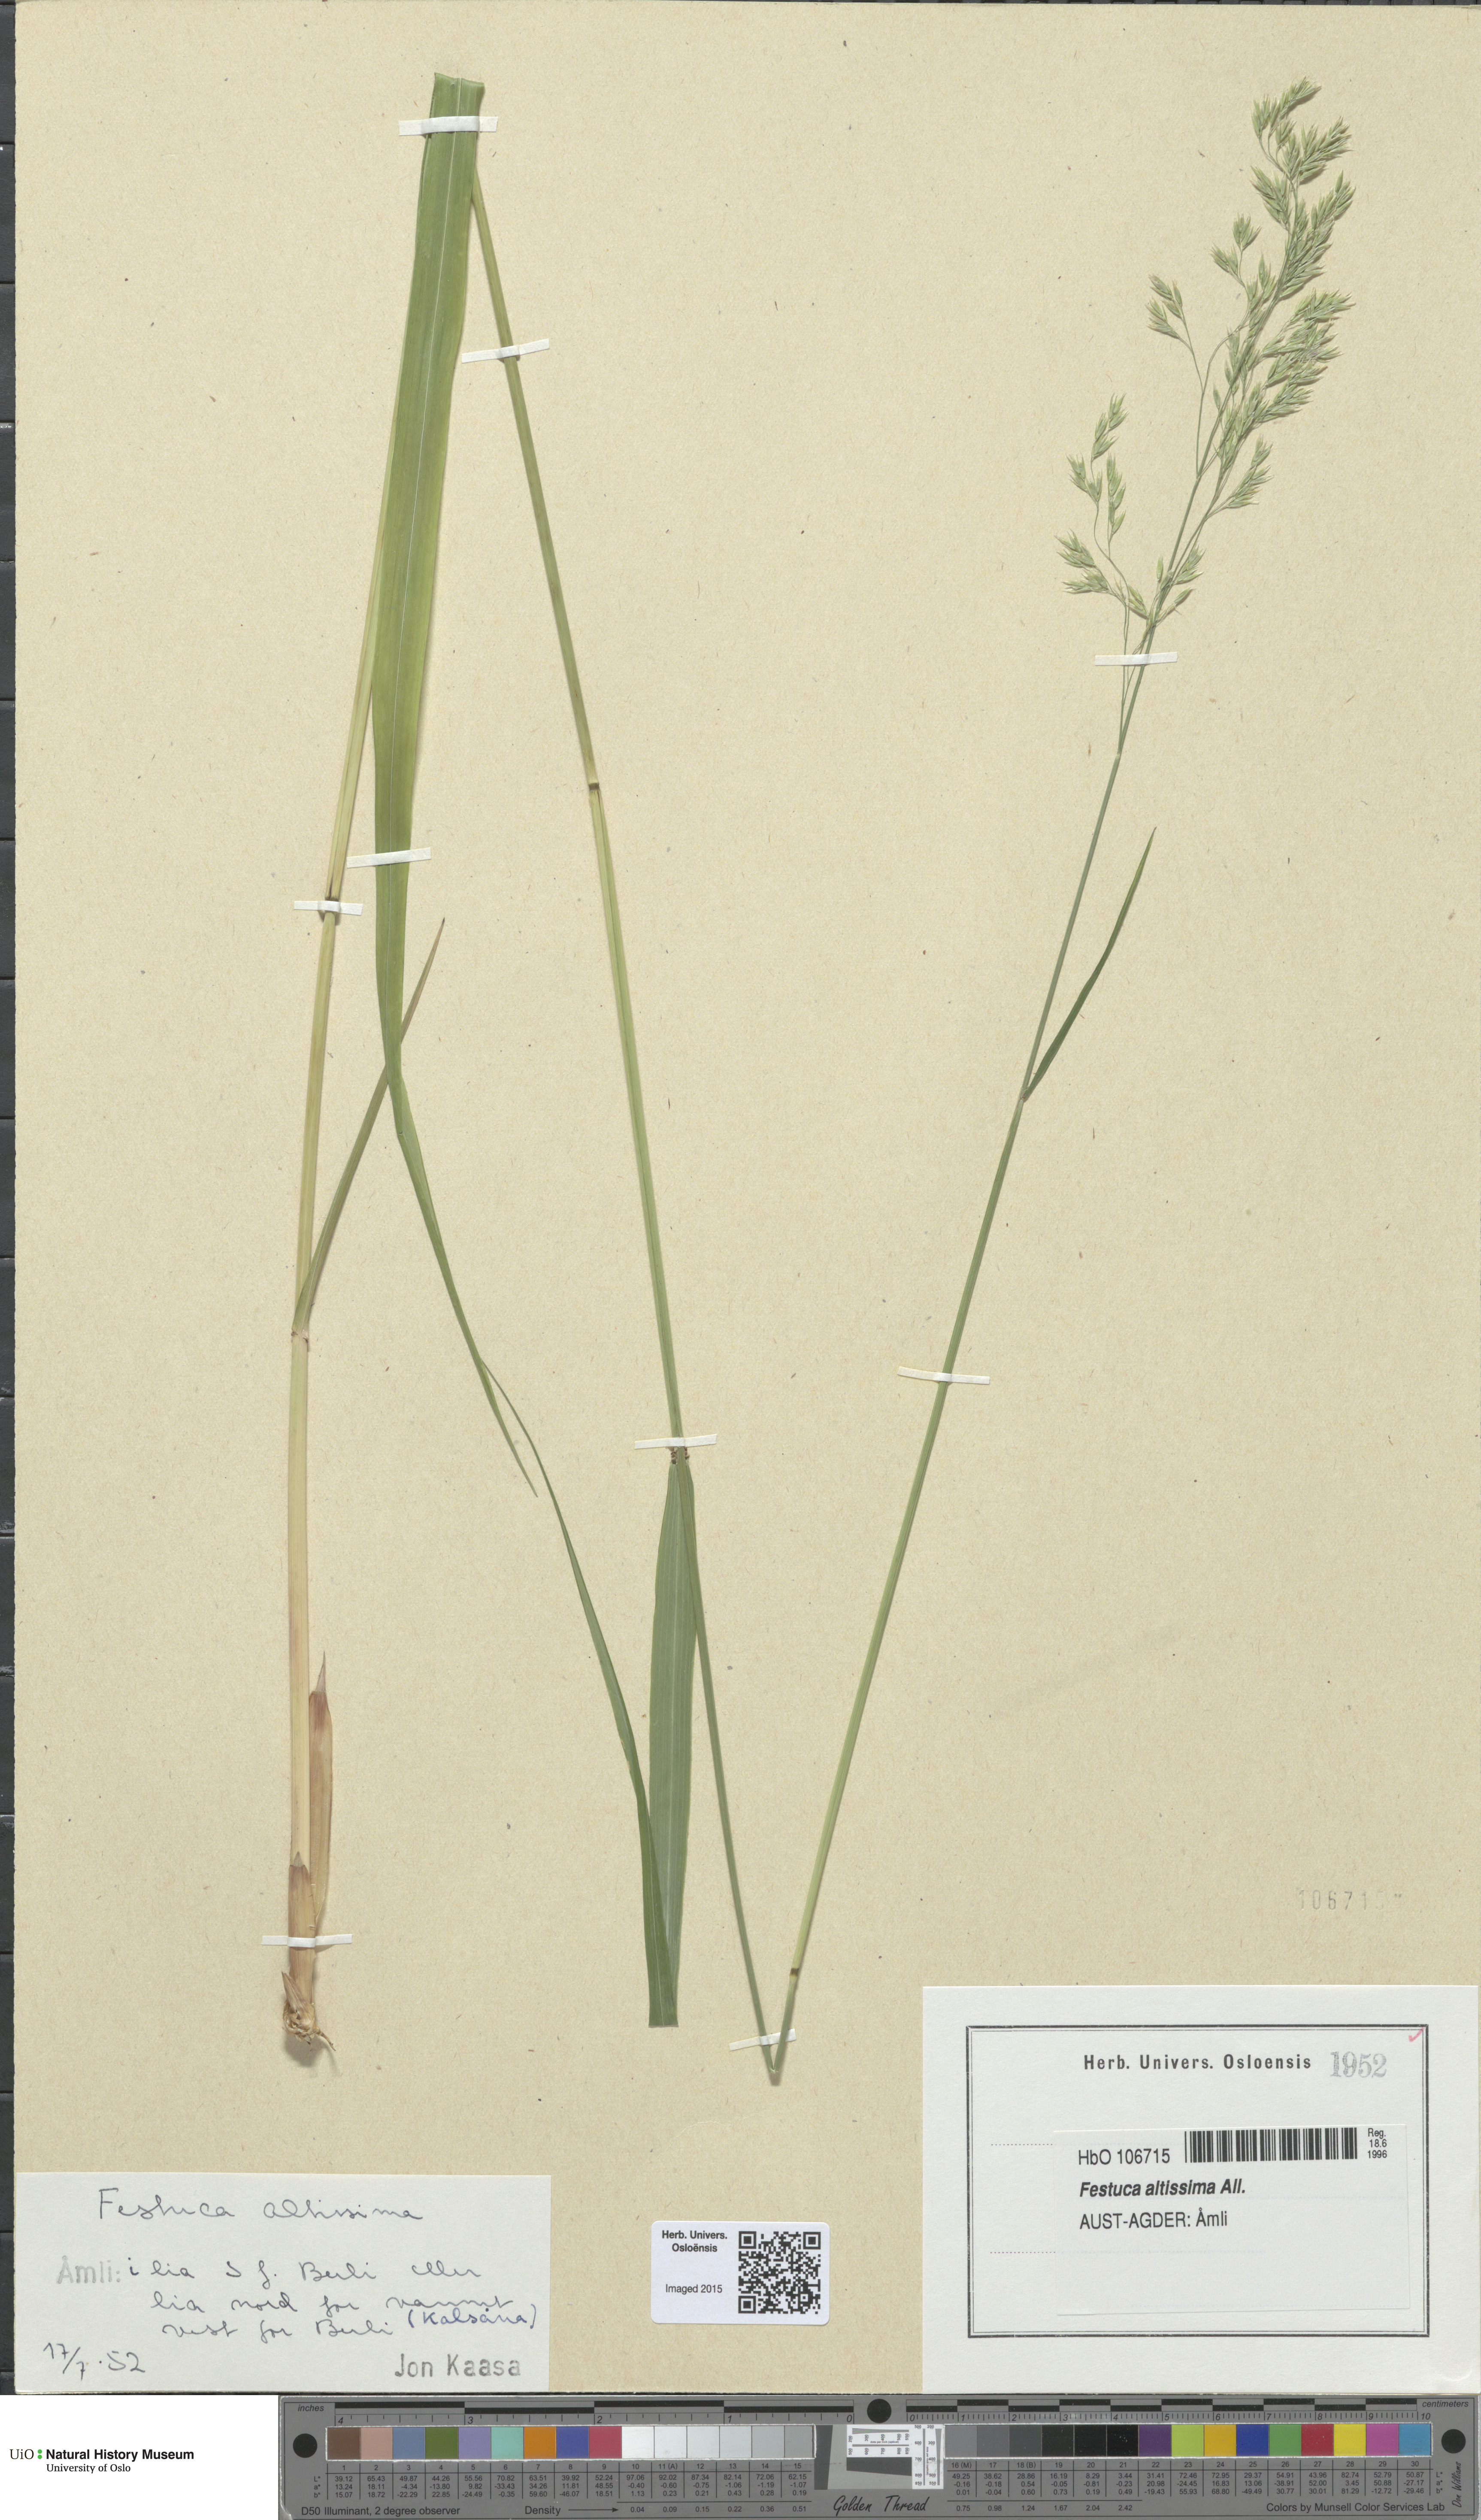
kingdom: Plantae
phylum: Tracheophyta
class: Liliopsida
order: Poales
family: Poaceae
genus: Festuca
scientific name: Festuca altissima
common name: Wood fescue
